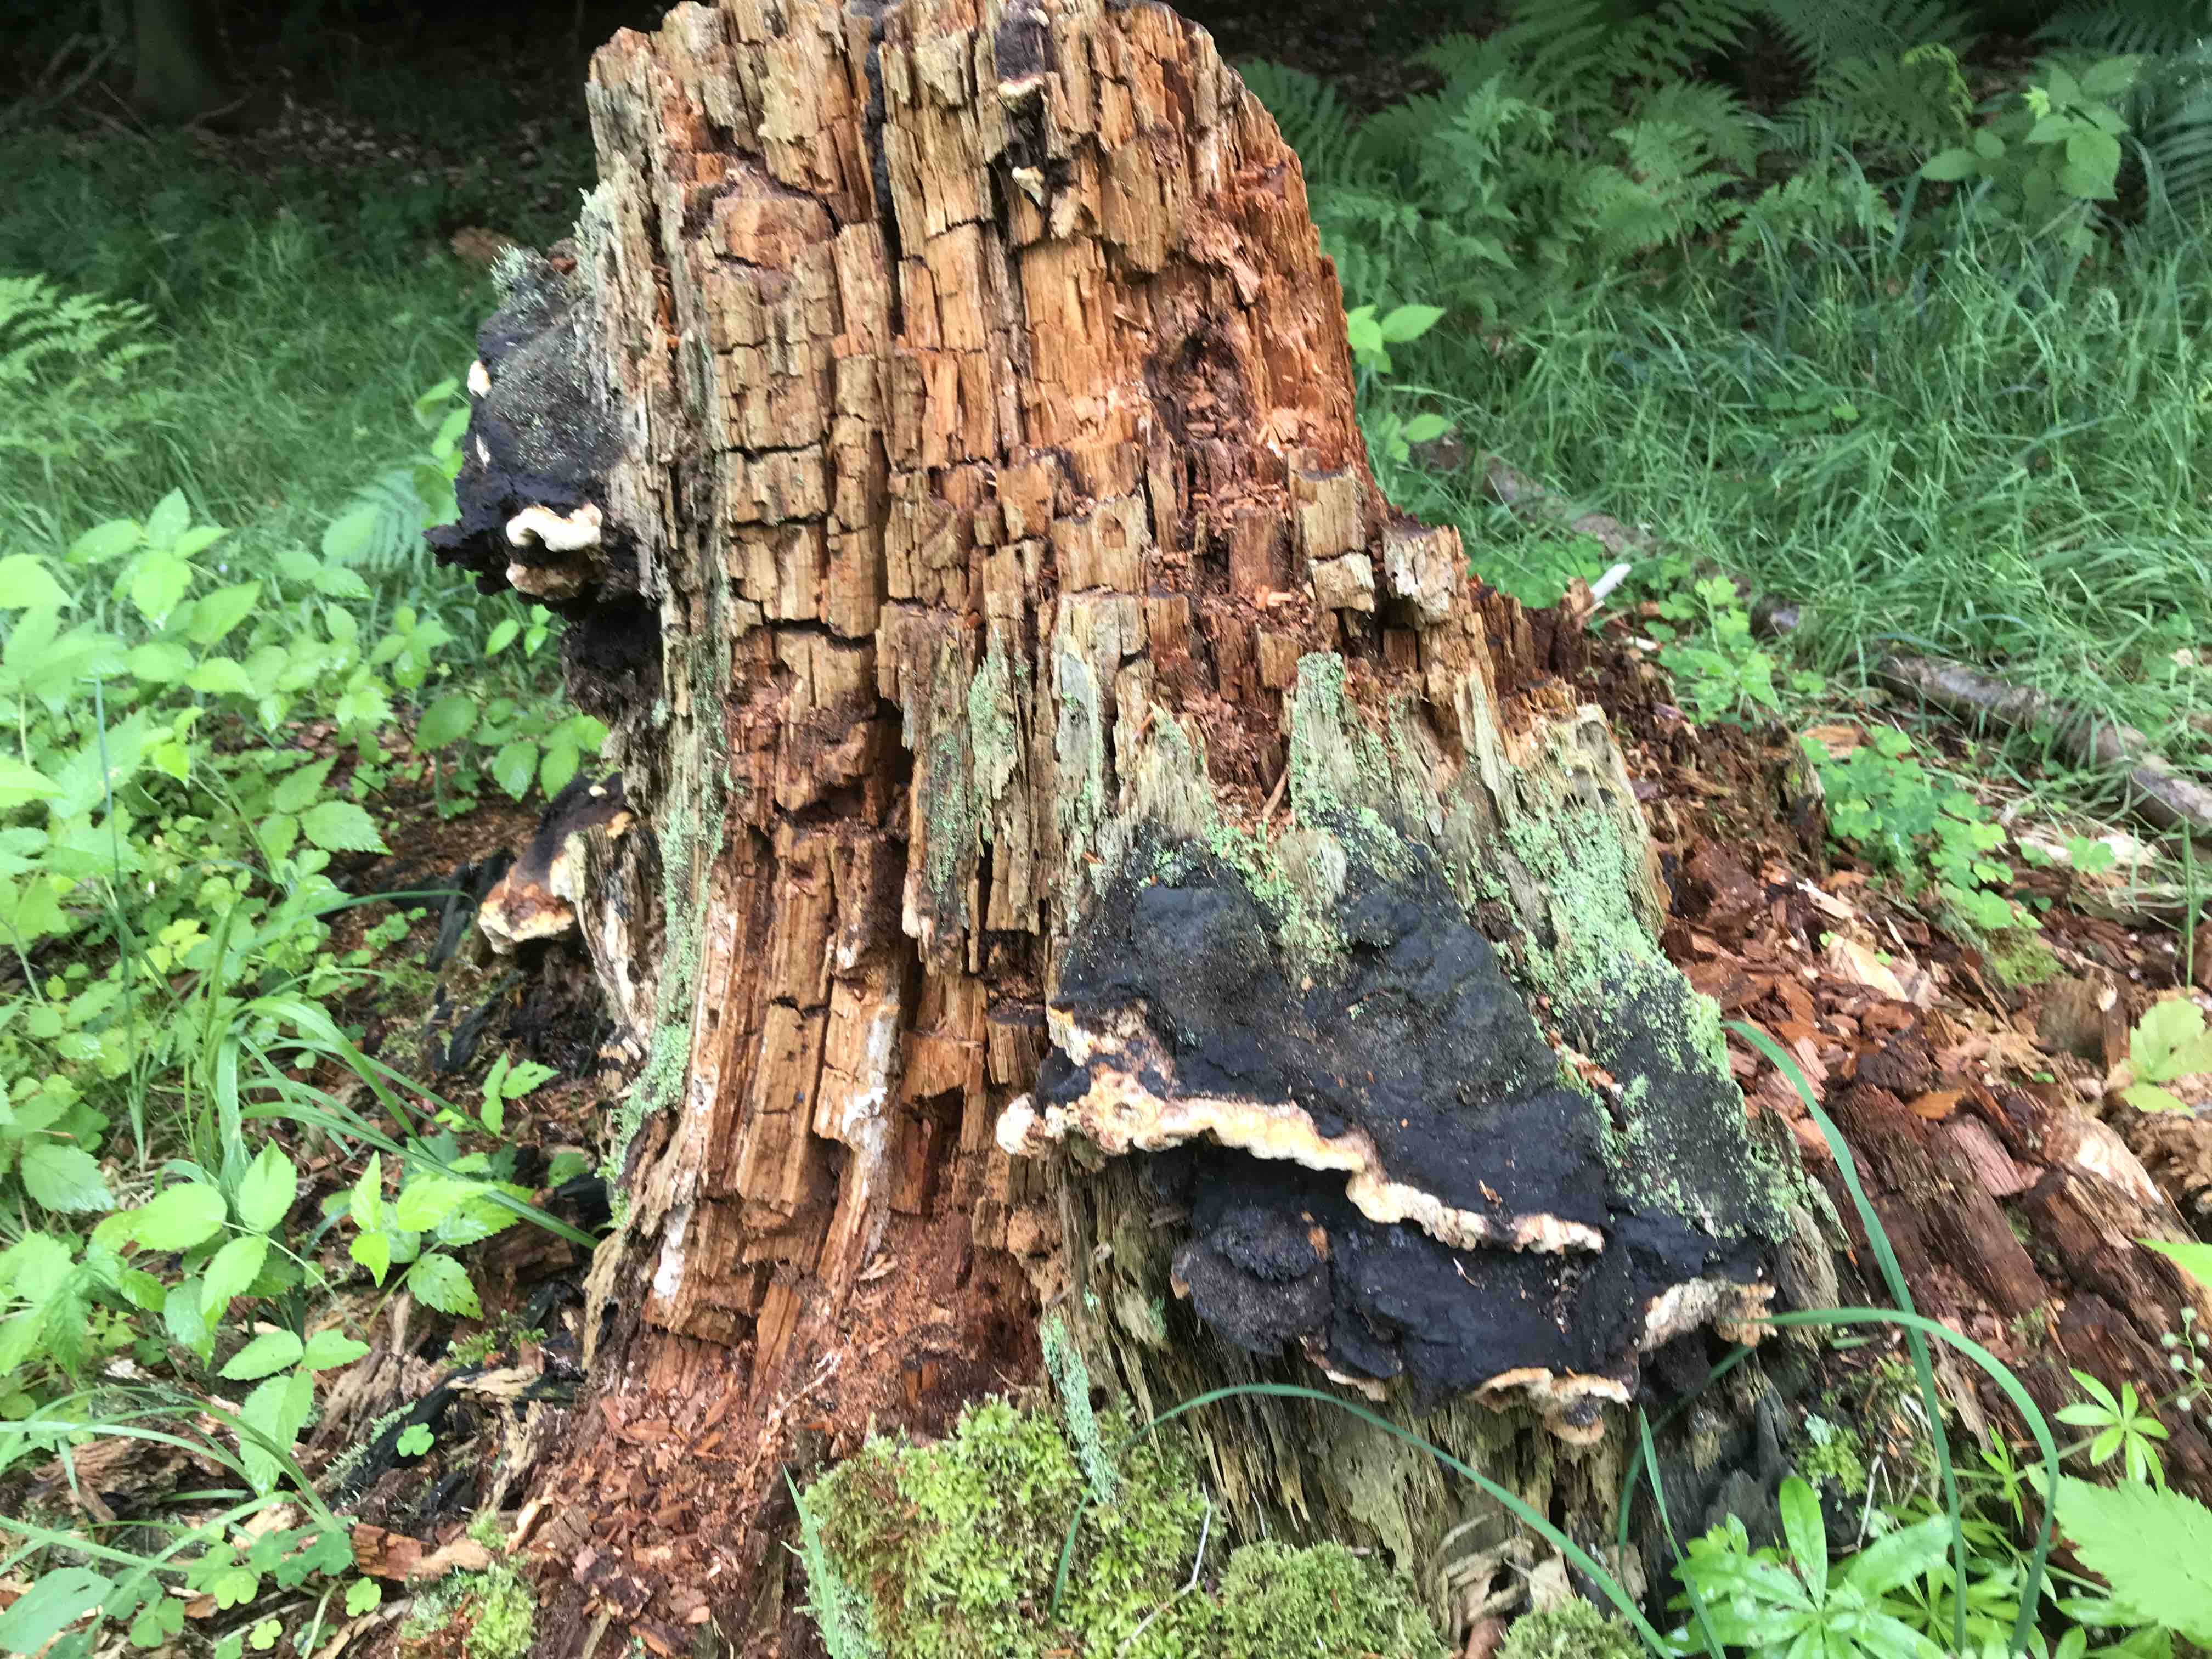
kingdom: Fungi
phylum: Basidiomycota
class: Agaricomycetes
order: Gloeophyllales
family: Gloeophyllaceae
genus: Gloeophyllum
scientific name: Gloeophyllum odoratum
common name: duftende korkhat
